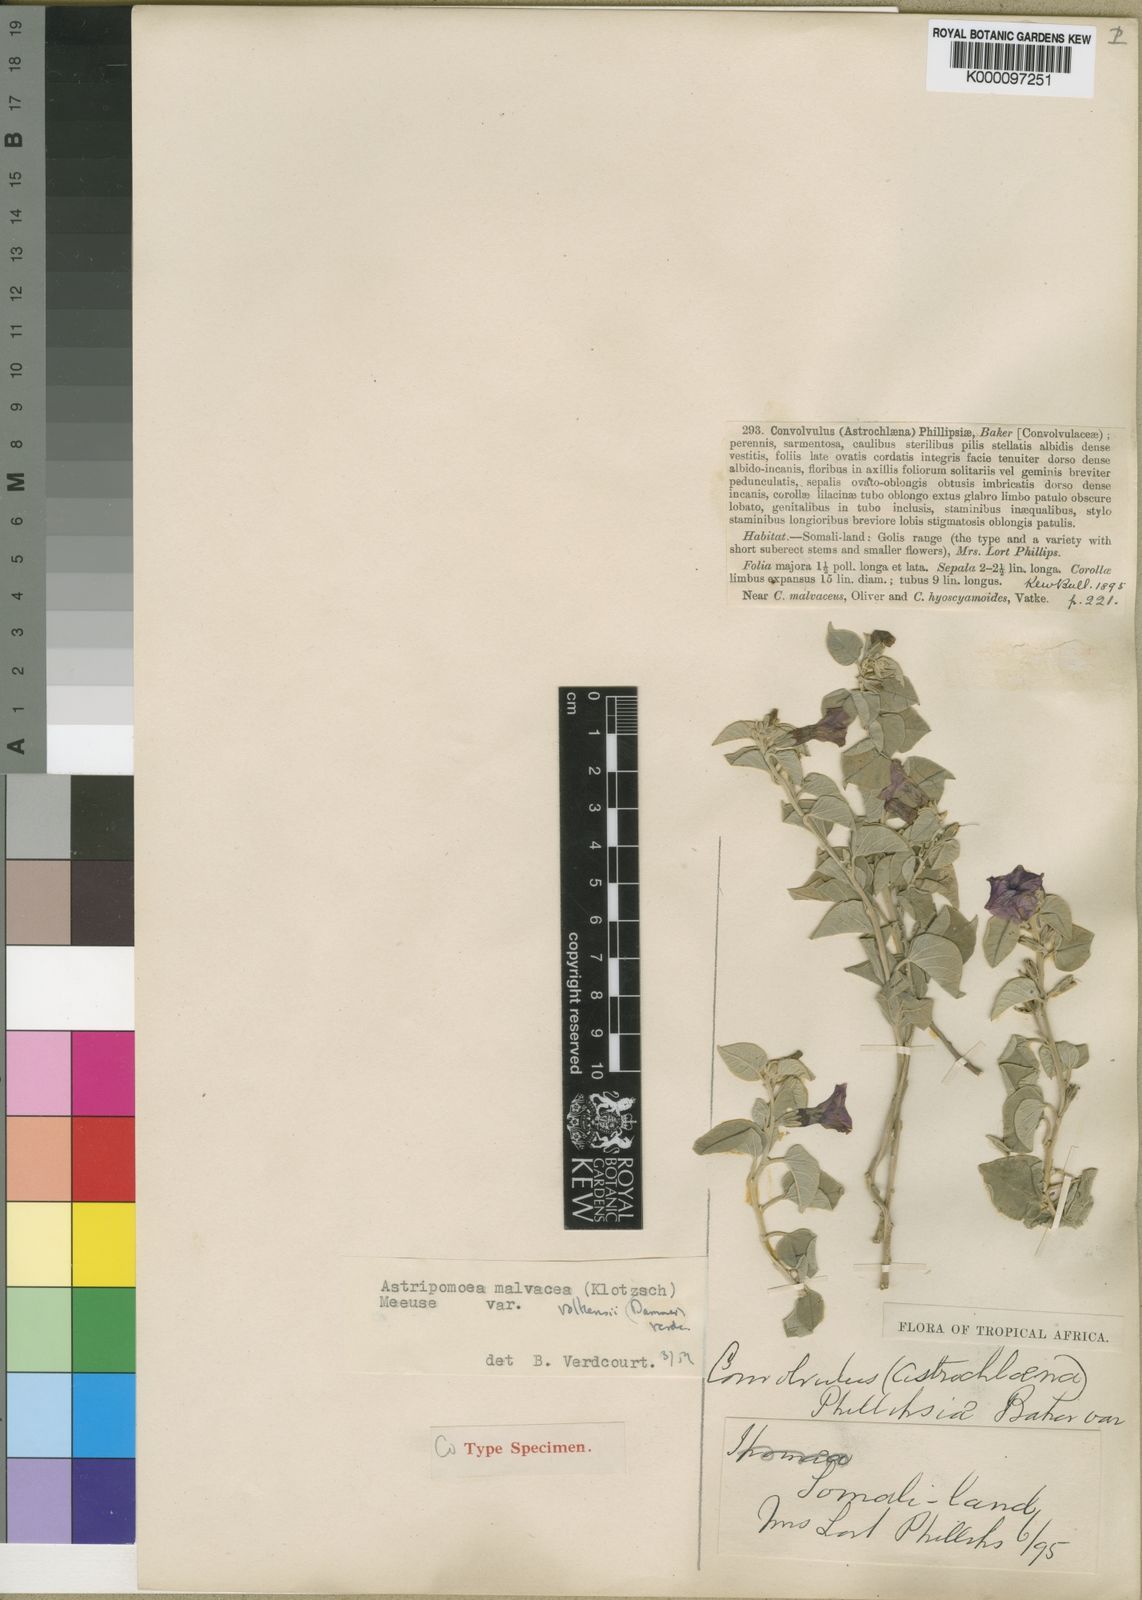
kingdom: Plantae
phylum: Tracheophyta
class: Magnoliopsida
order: Solanales
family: Convolvulaceae
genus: Astripomoea
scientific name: Astripomoea malvacea
